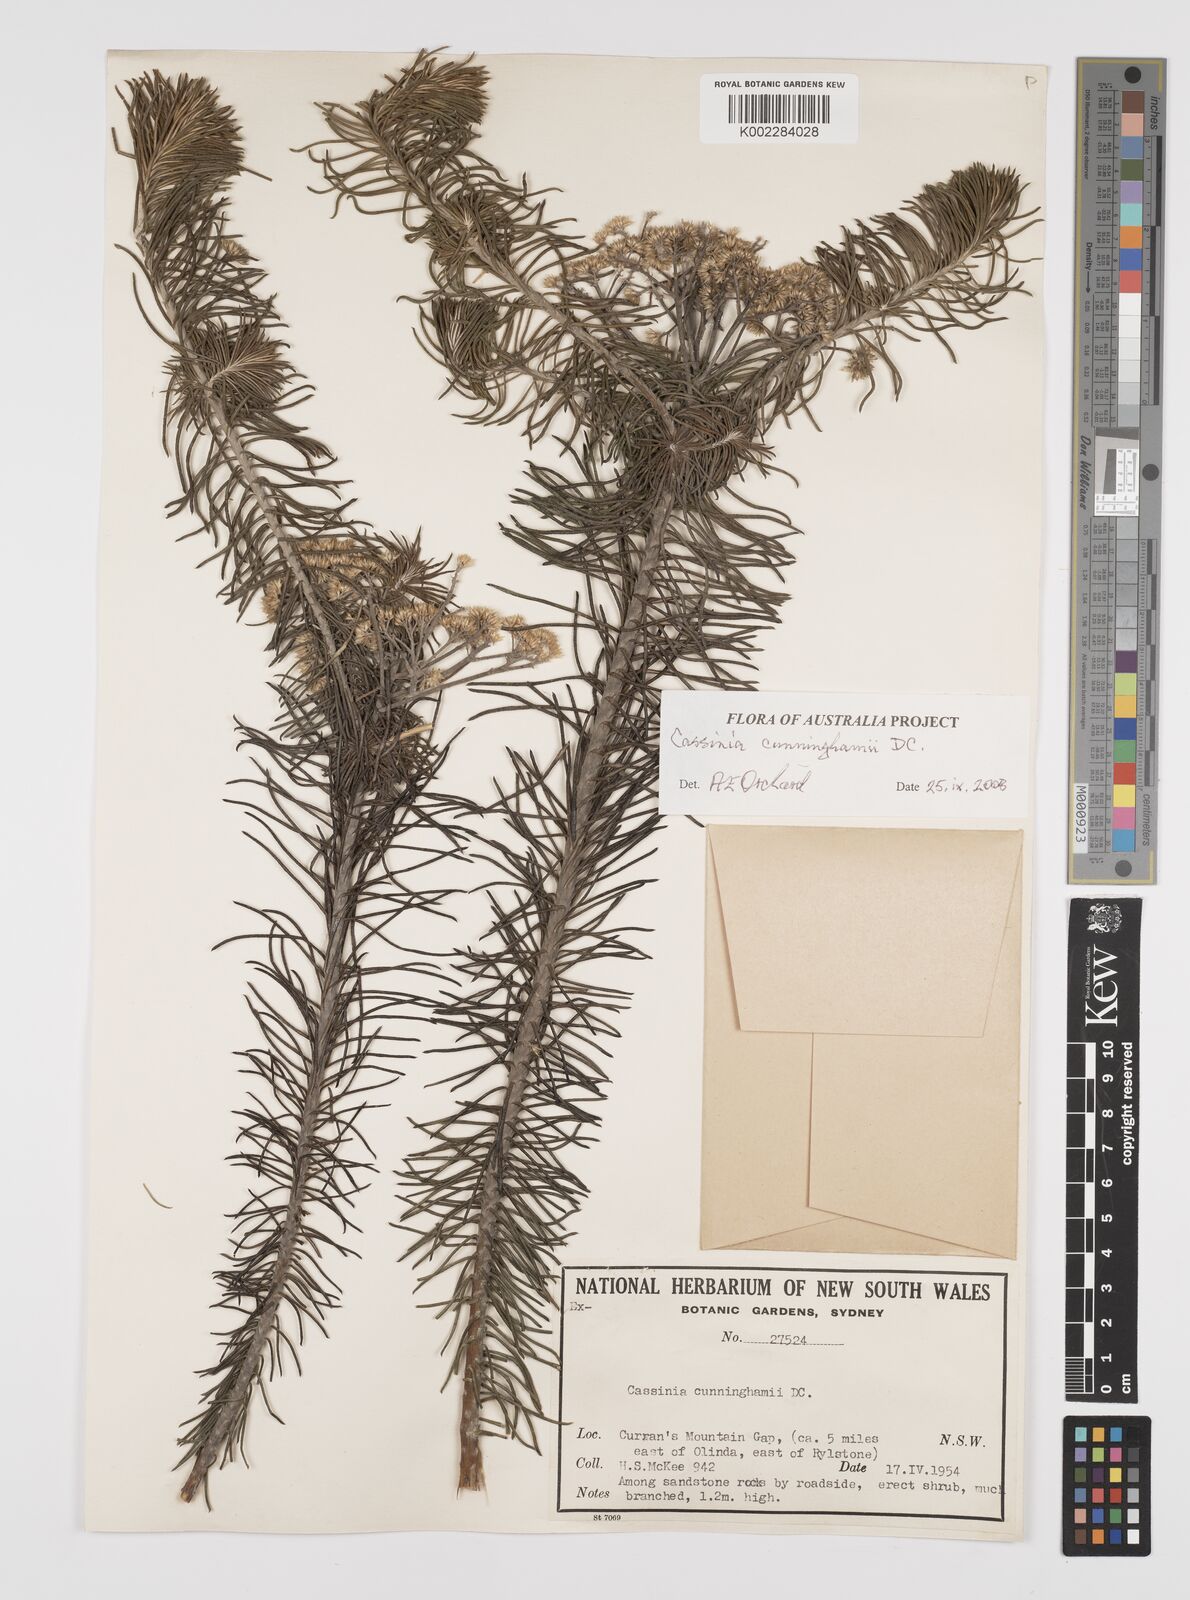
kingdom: Plantae
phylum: Tracheophyta
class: Magnoliopsida
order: Asterales
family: Asteraceae
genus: Cassinia
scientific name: Cassinia cunninghamii
